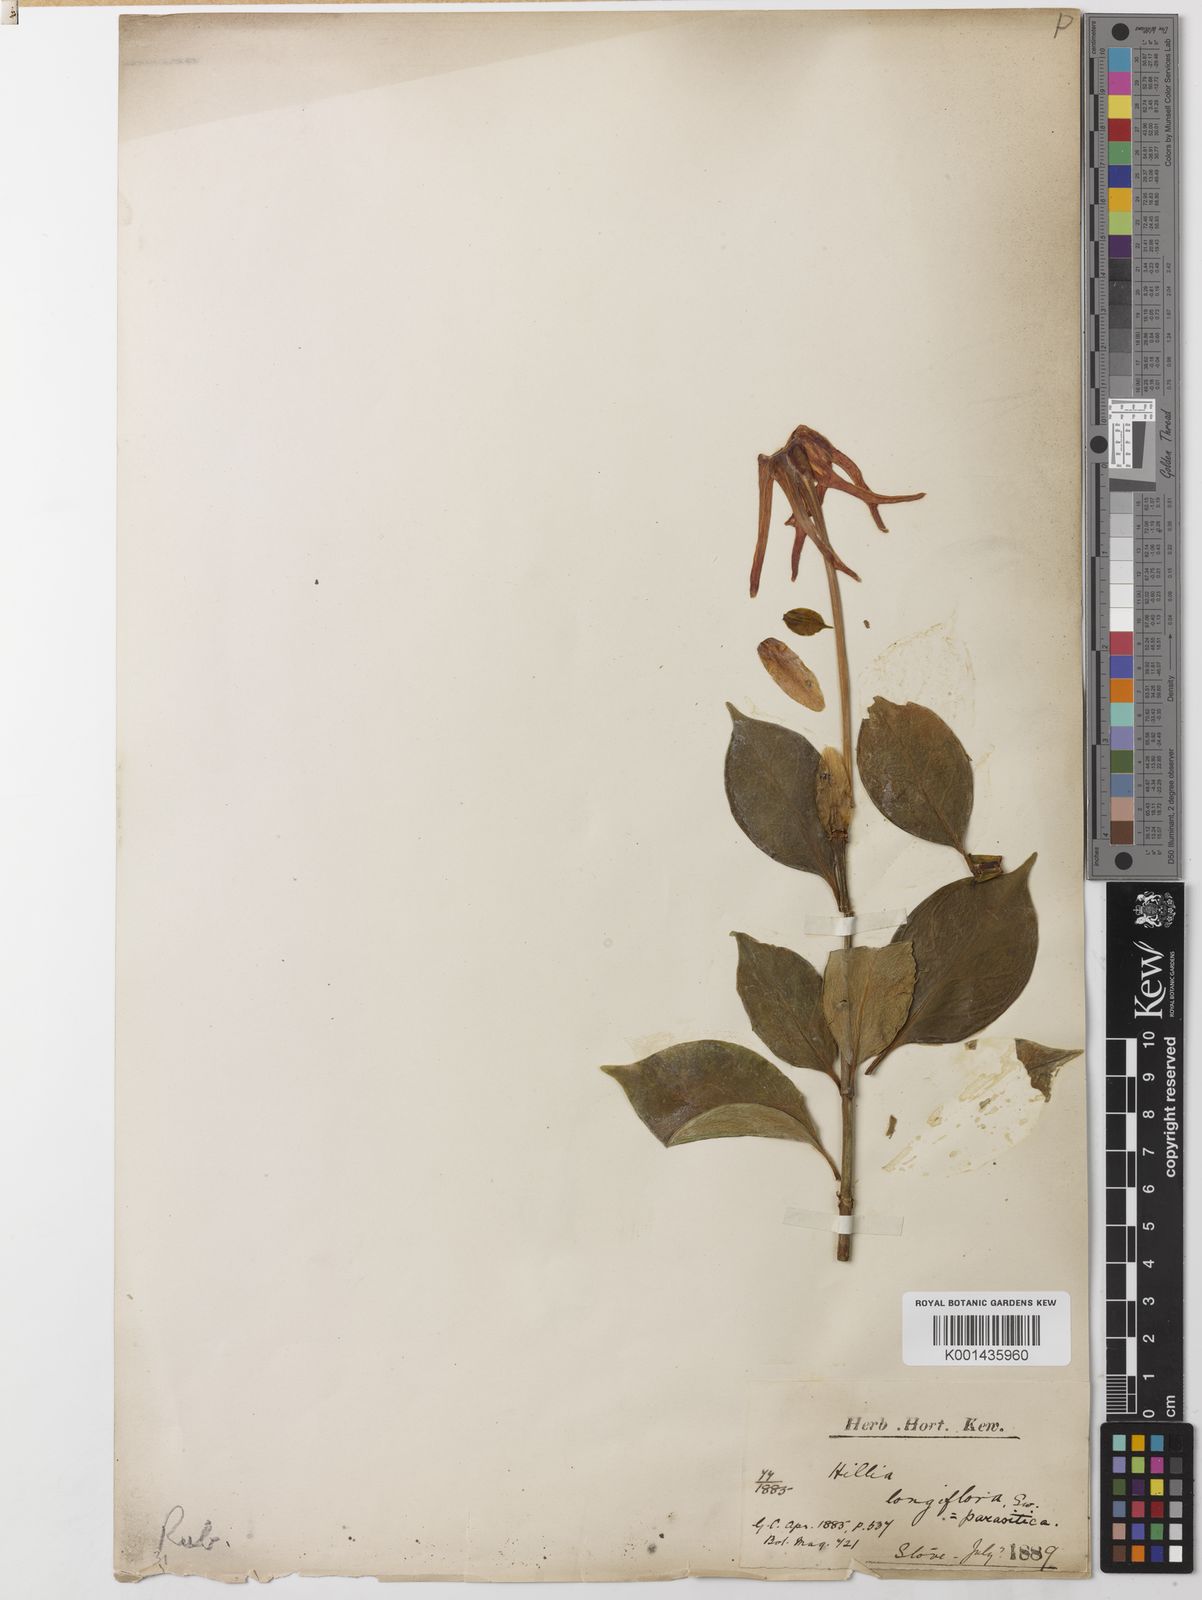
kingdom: Plantae
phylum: Tracheophyta
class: Magnoliopsida
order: Gentianales
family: Rubiaceae
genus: Hillia
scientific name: Hillia parasitica
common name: Morning star
